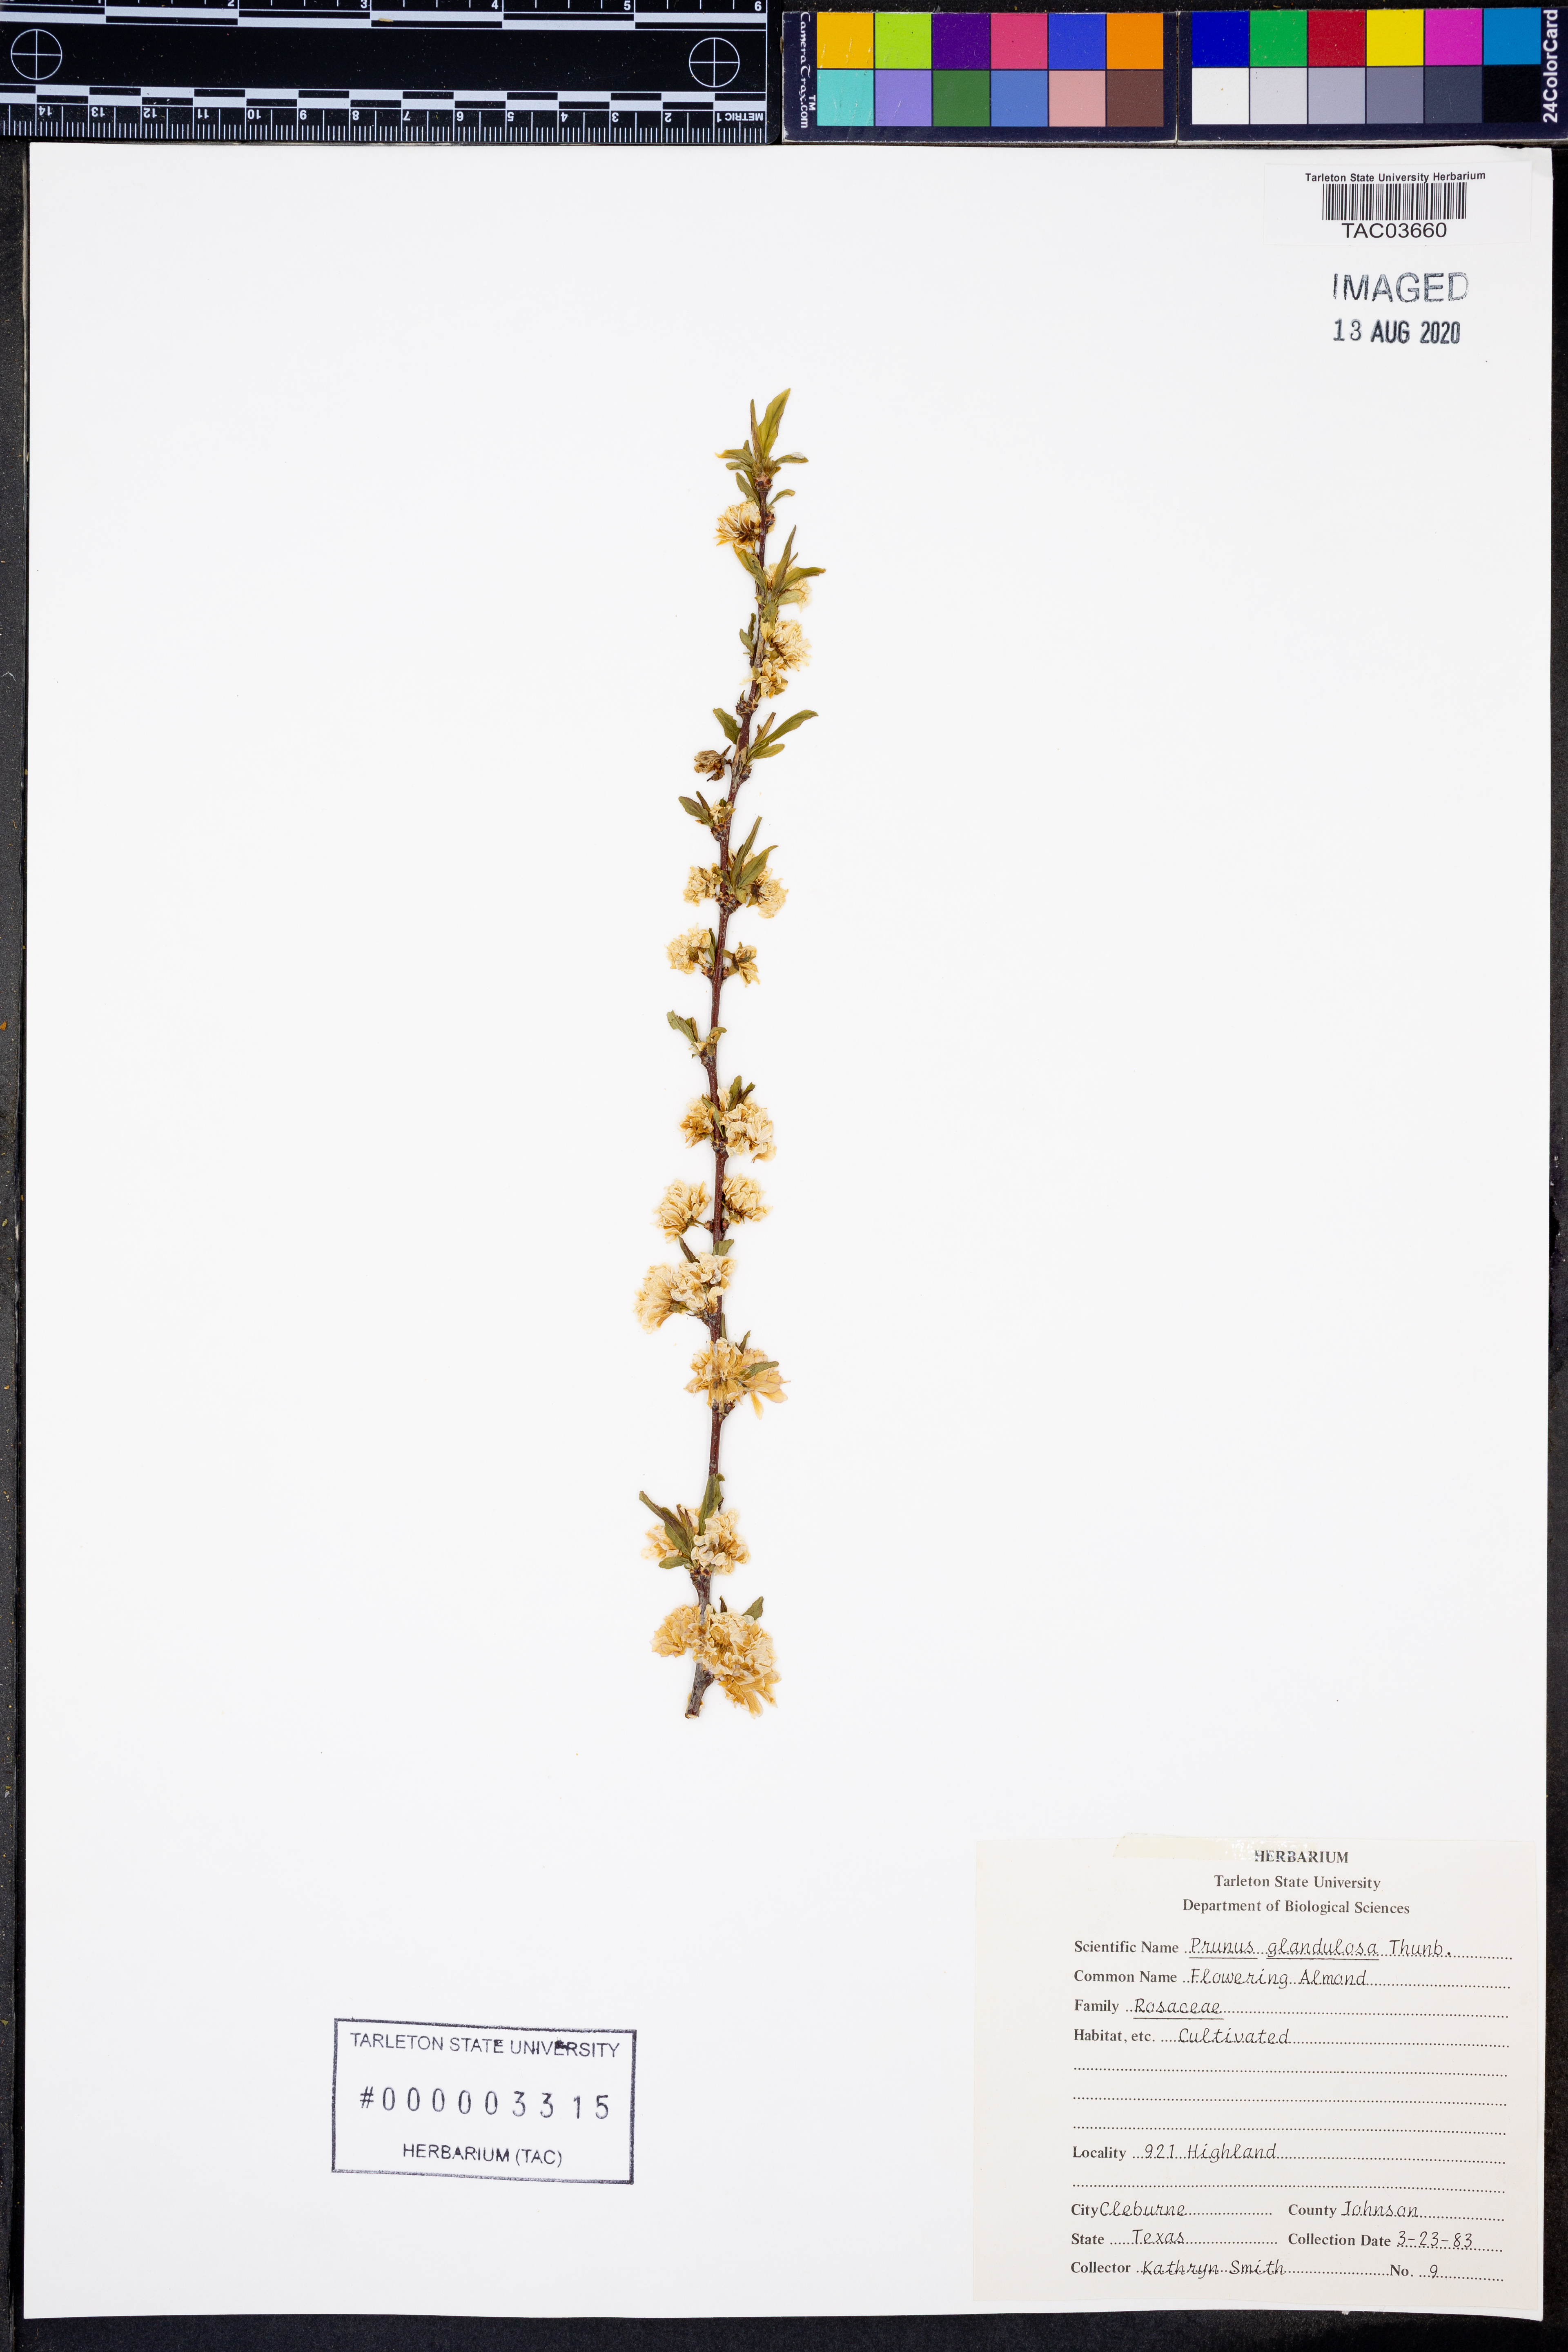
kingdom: Plantae
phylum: Tracheophyta
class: Magnoliopsida
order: Rosales
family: Rosaceae
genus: Prunus
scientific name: Prunus glandulosa
